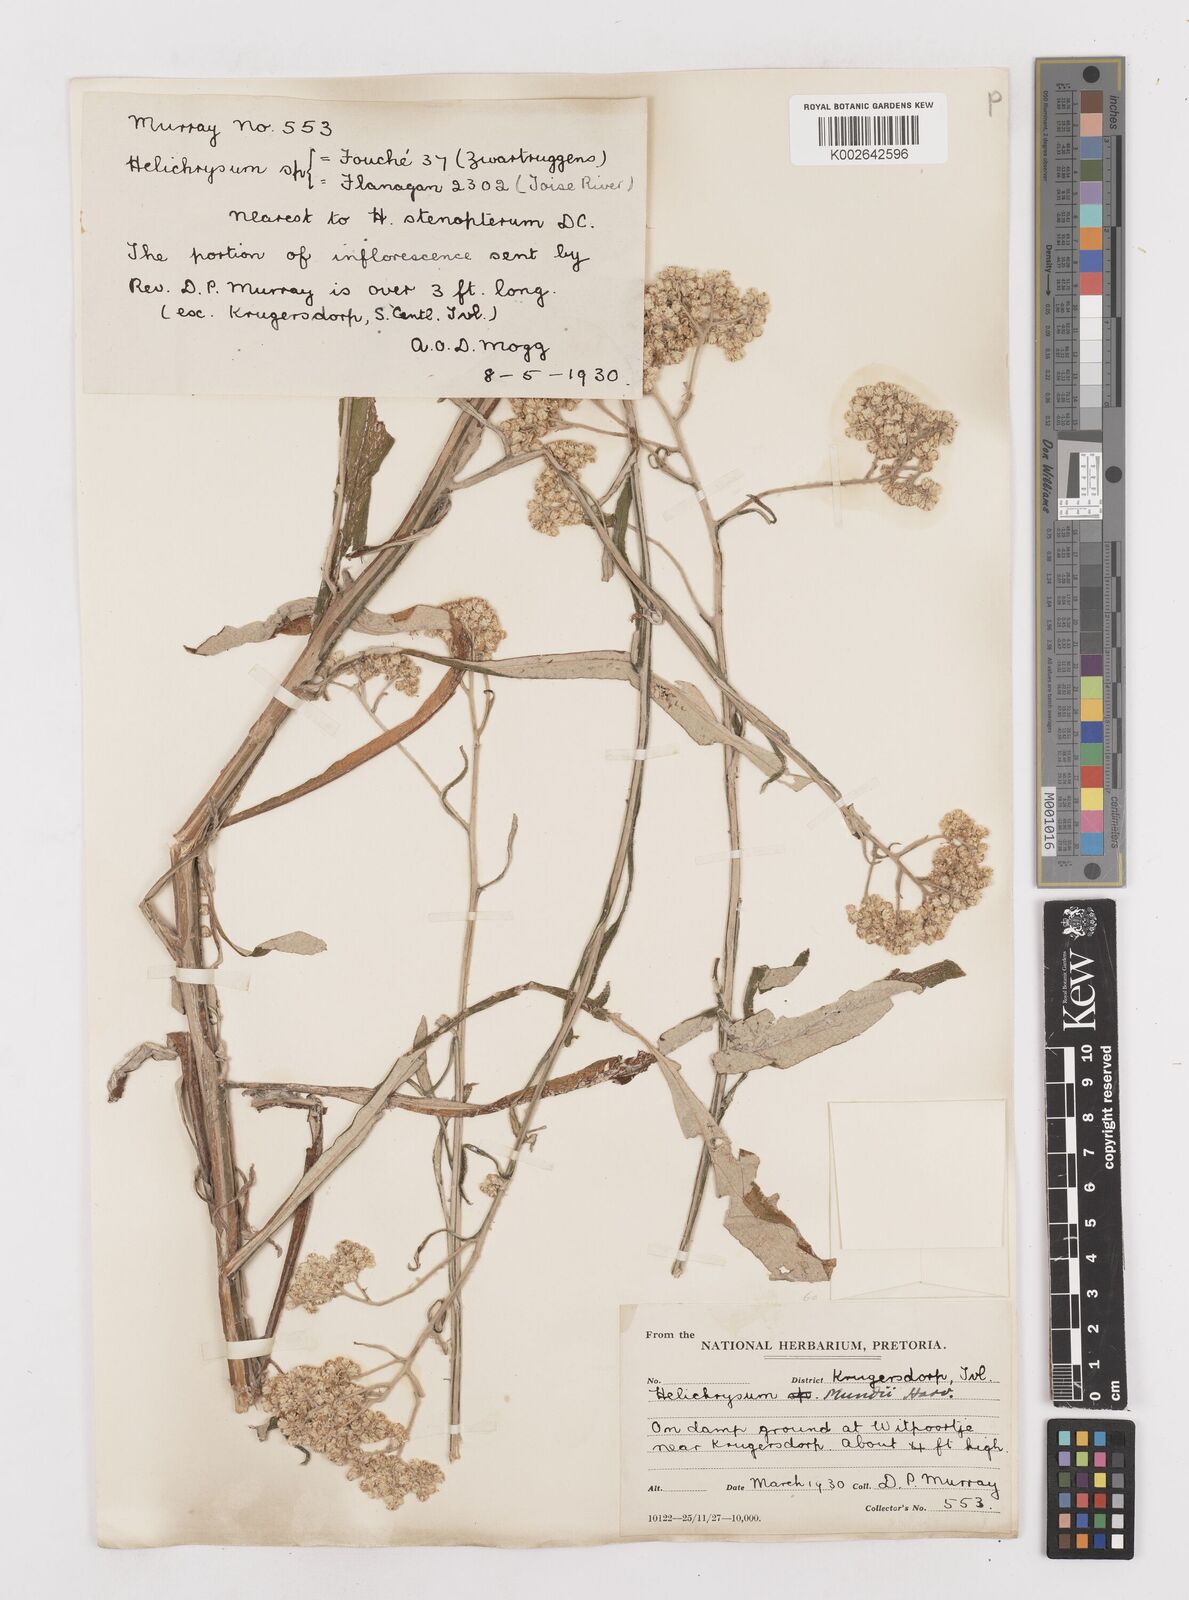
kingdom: Plantae
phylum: Tracheophyta
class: Magnoliopsida
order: Asterales
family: Asteraceae
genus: Helichrysum
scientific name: Helichrysum mundii
